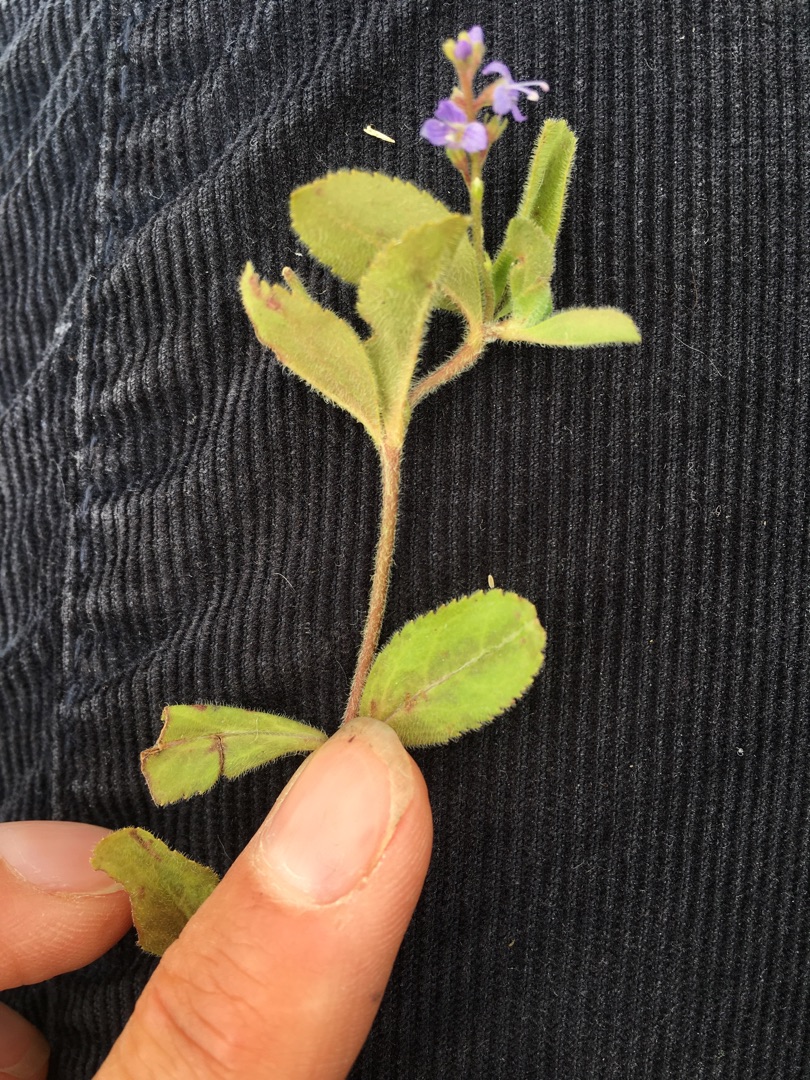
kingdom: Plantae
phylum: Tracheophyta
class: Magnoliopsida
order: Lamiales
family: Plantaginaceae
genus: Veronica
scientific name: Veronica officinalis
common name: Læge-ærenpris
